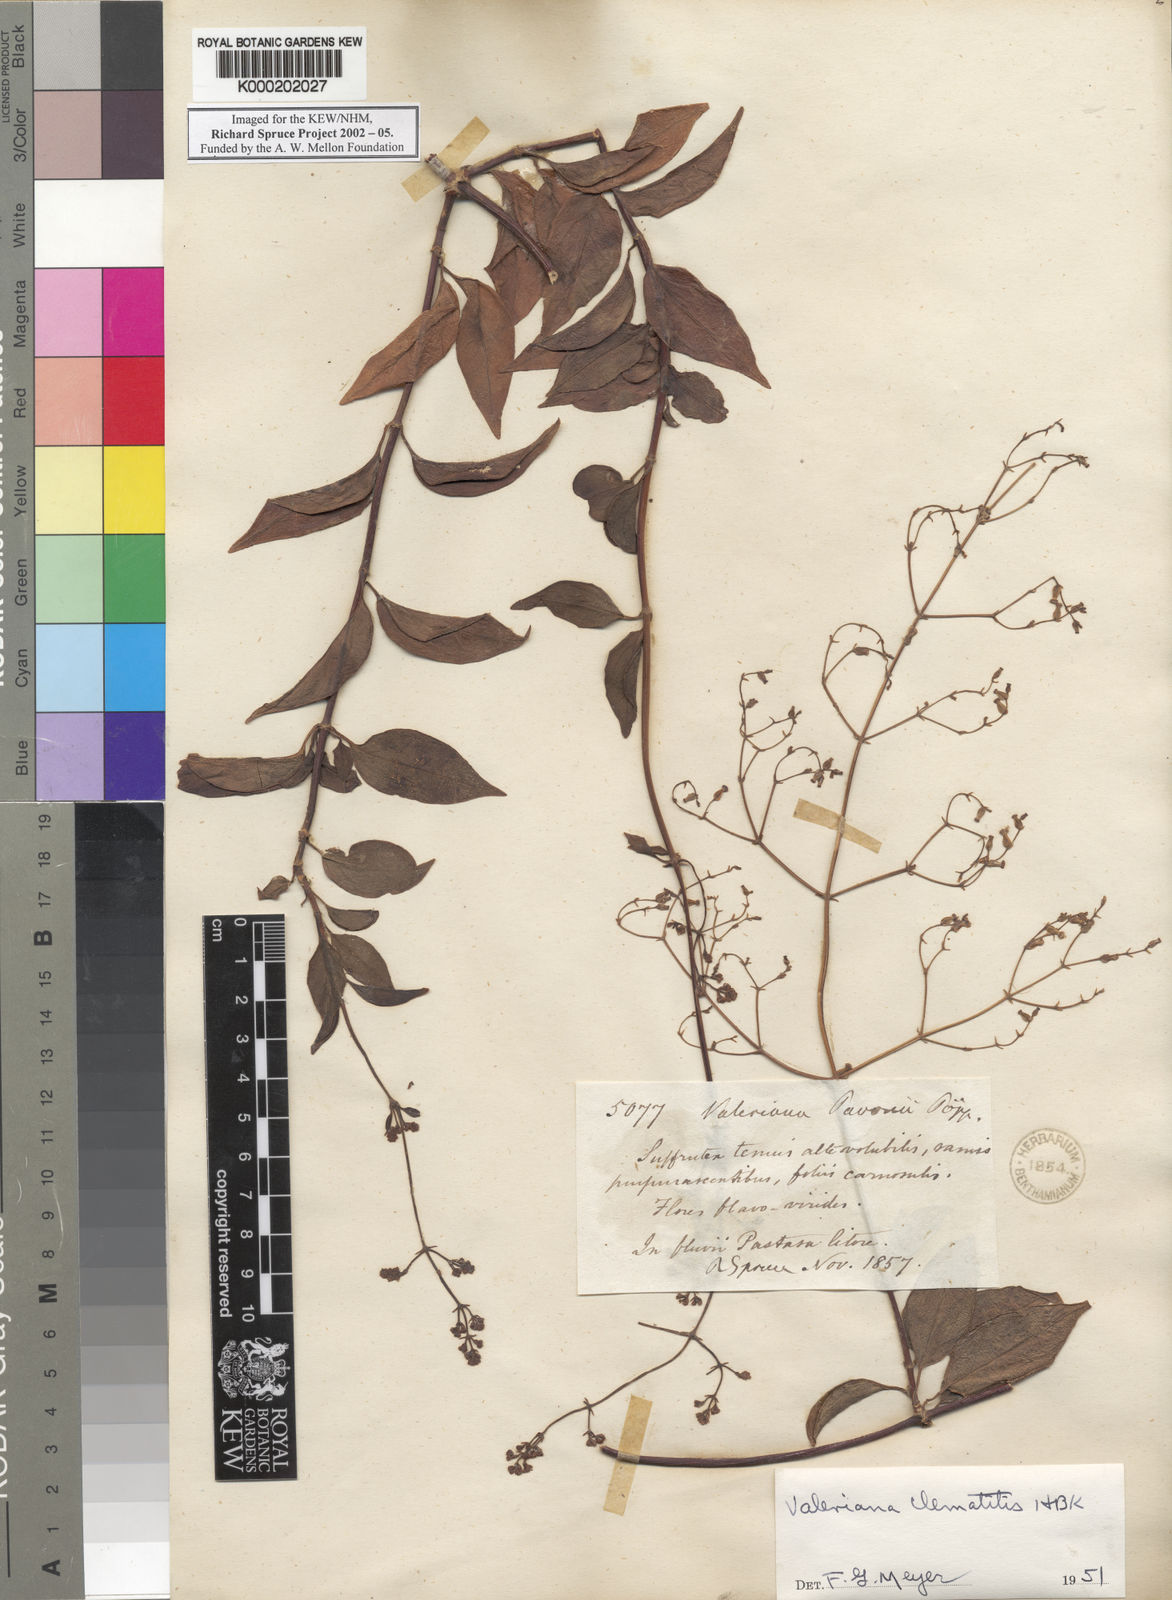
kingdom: Plantae
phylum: Tracheophyta
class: Magnoliopsida
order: Dipsacales
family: Caprifoliaceae
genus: Valeriana
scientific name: Valeriana clematitis
